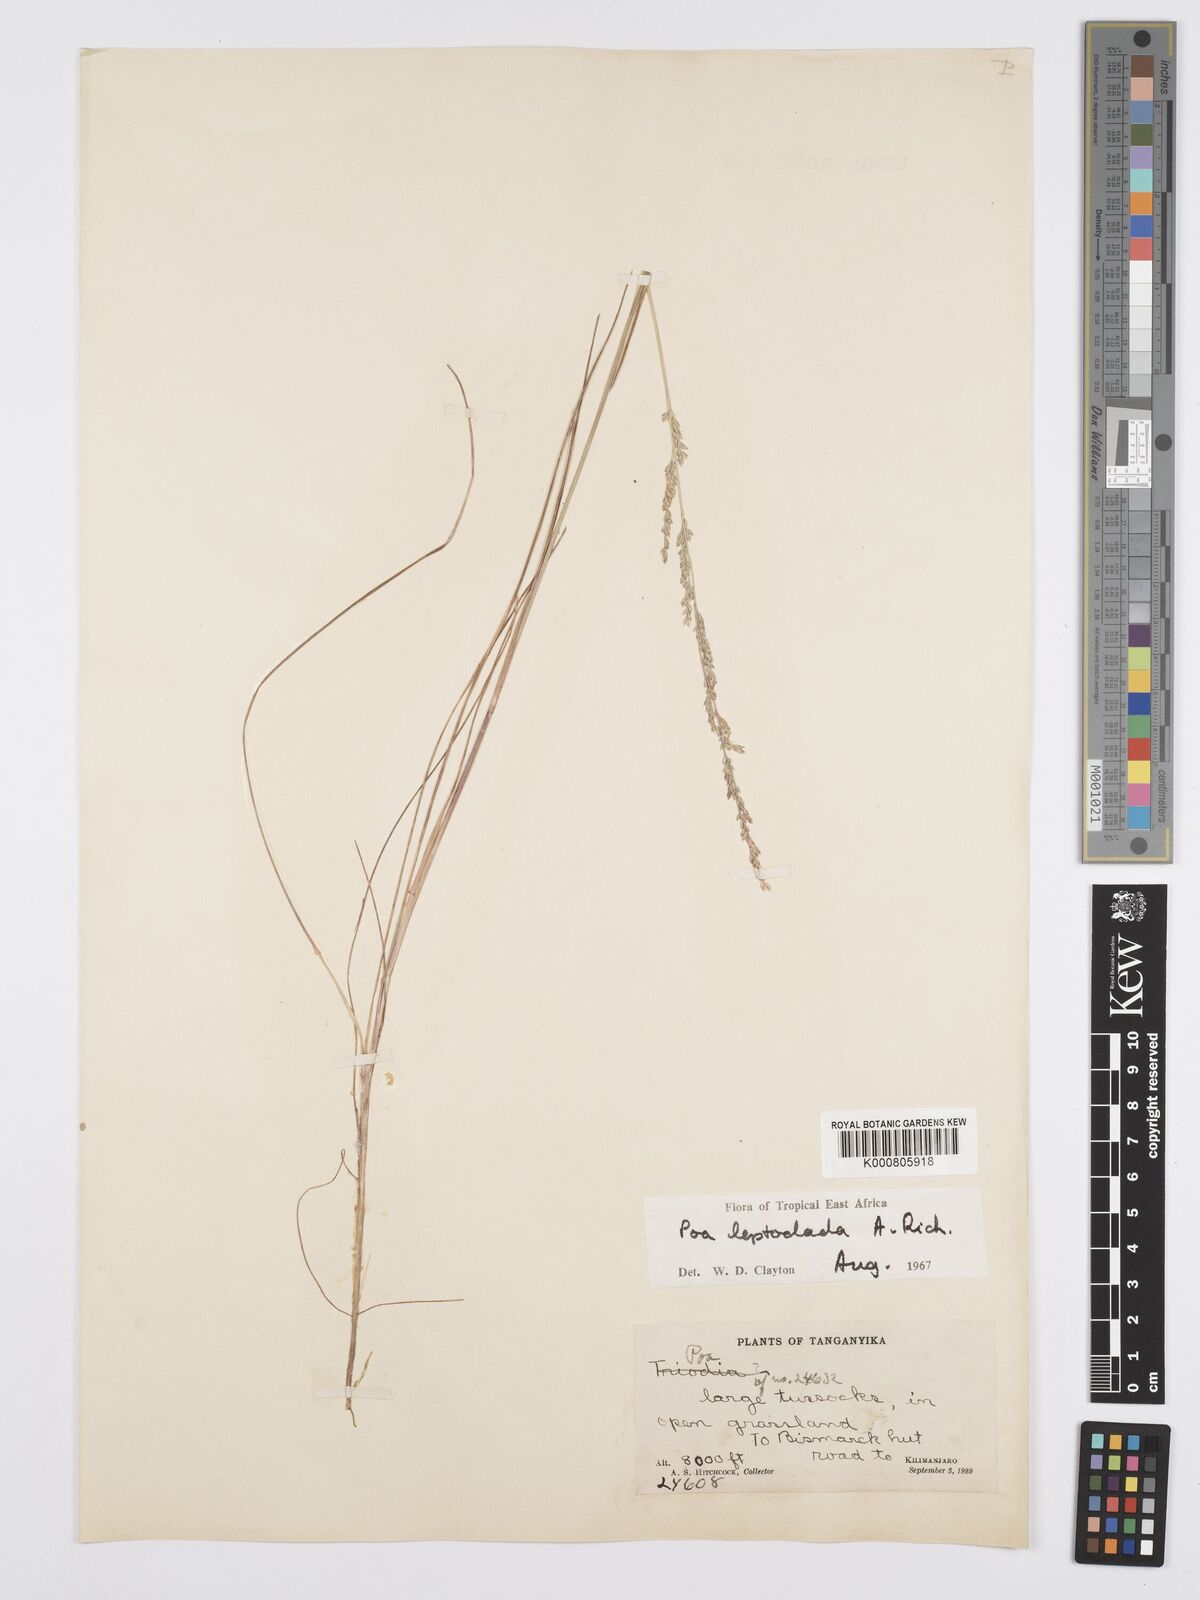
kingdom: Plantae
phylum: Tracheophyta
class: Liliopsida
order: Poales
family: Poaceae
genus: Poa
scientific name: Poa leptoclada
